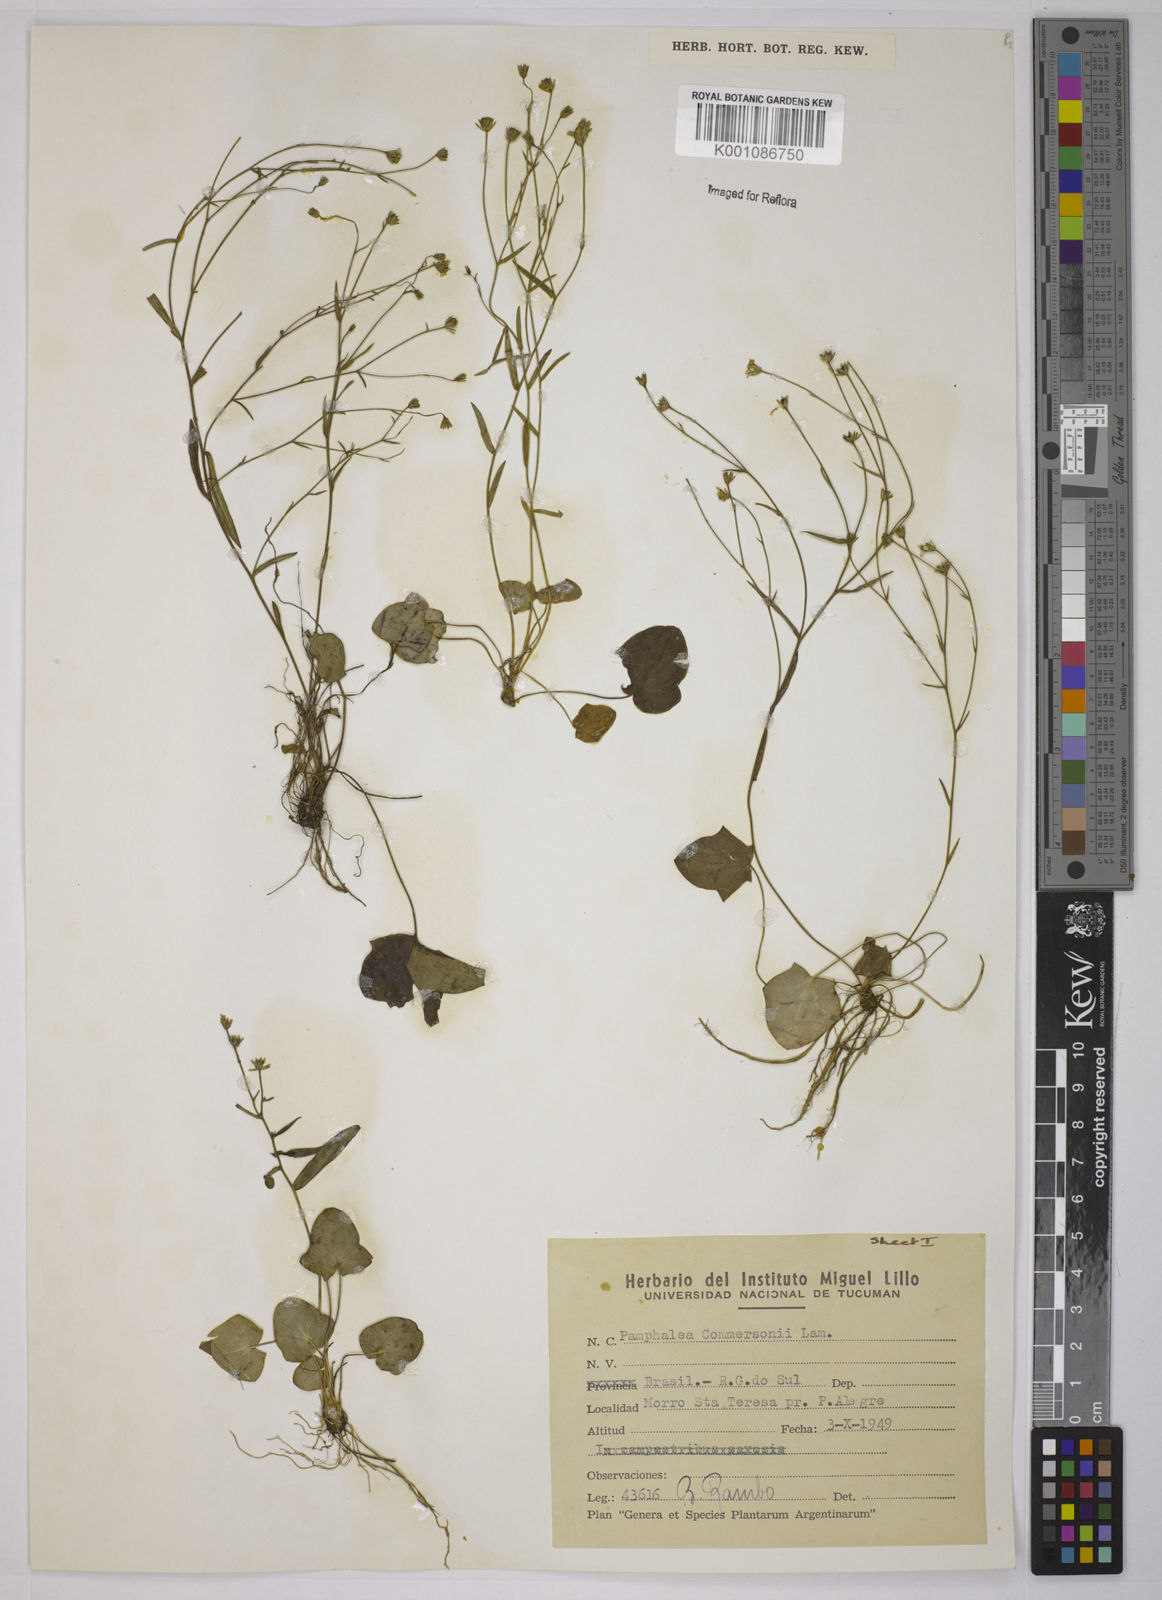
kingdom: Plantae
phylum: Tracheophyta
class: Magnoliopsida
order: Asterales
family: Asteraceae
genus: Pamphalea
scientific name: Pamphalea
